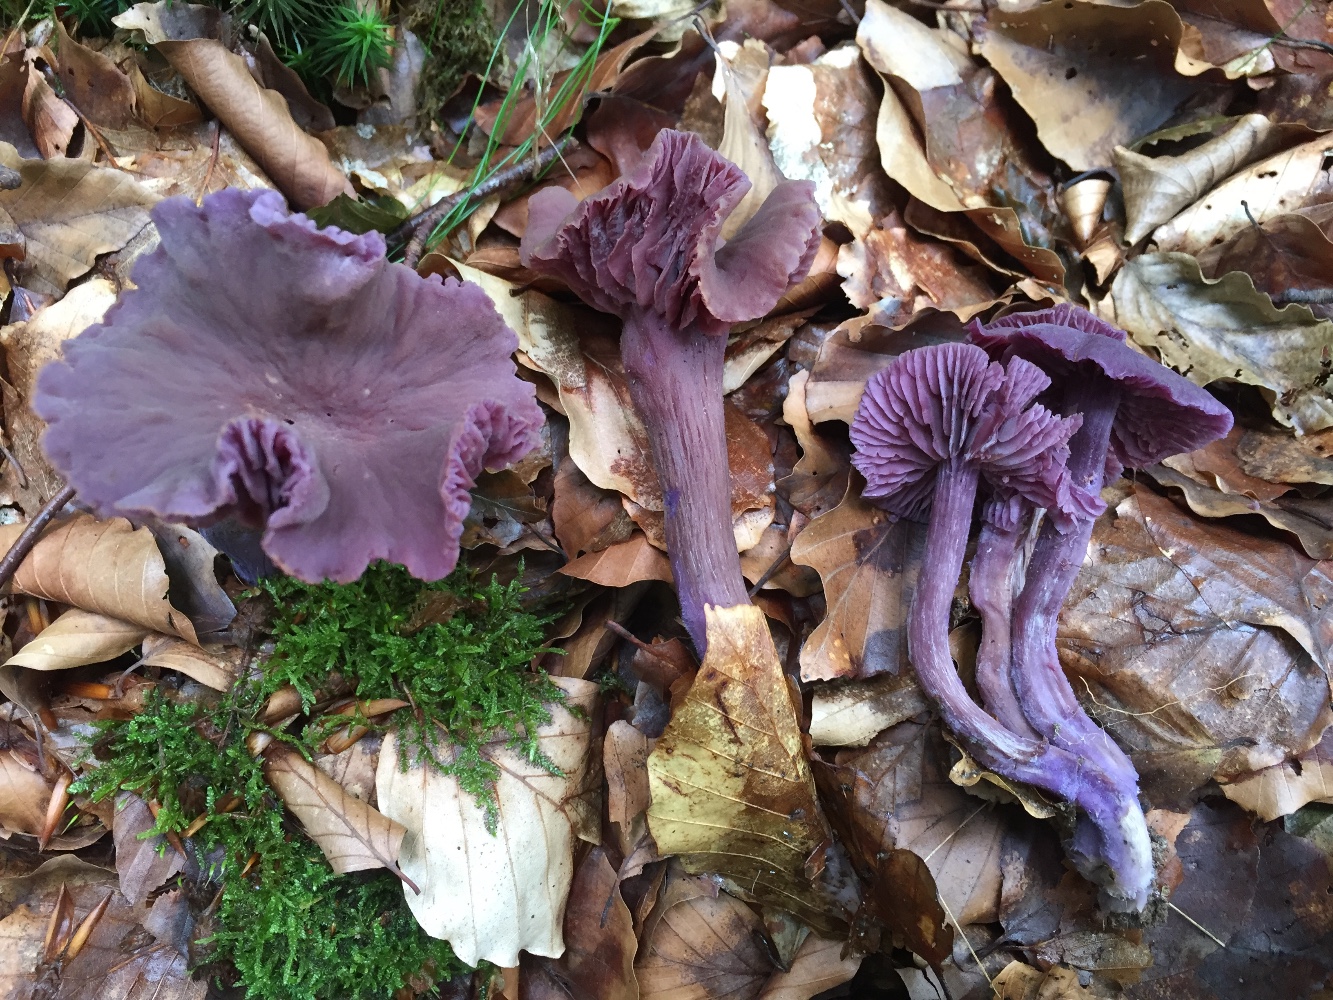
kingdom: Fungi
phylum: Basidiomycota
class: Agaricomycetes
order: Agaricales
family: Hydnangiaceae
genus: Laccaria
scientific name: Laccaria amethystina
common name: violet ametysthat
